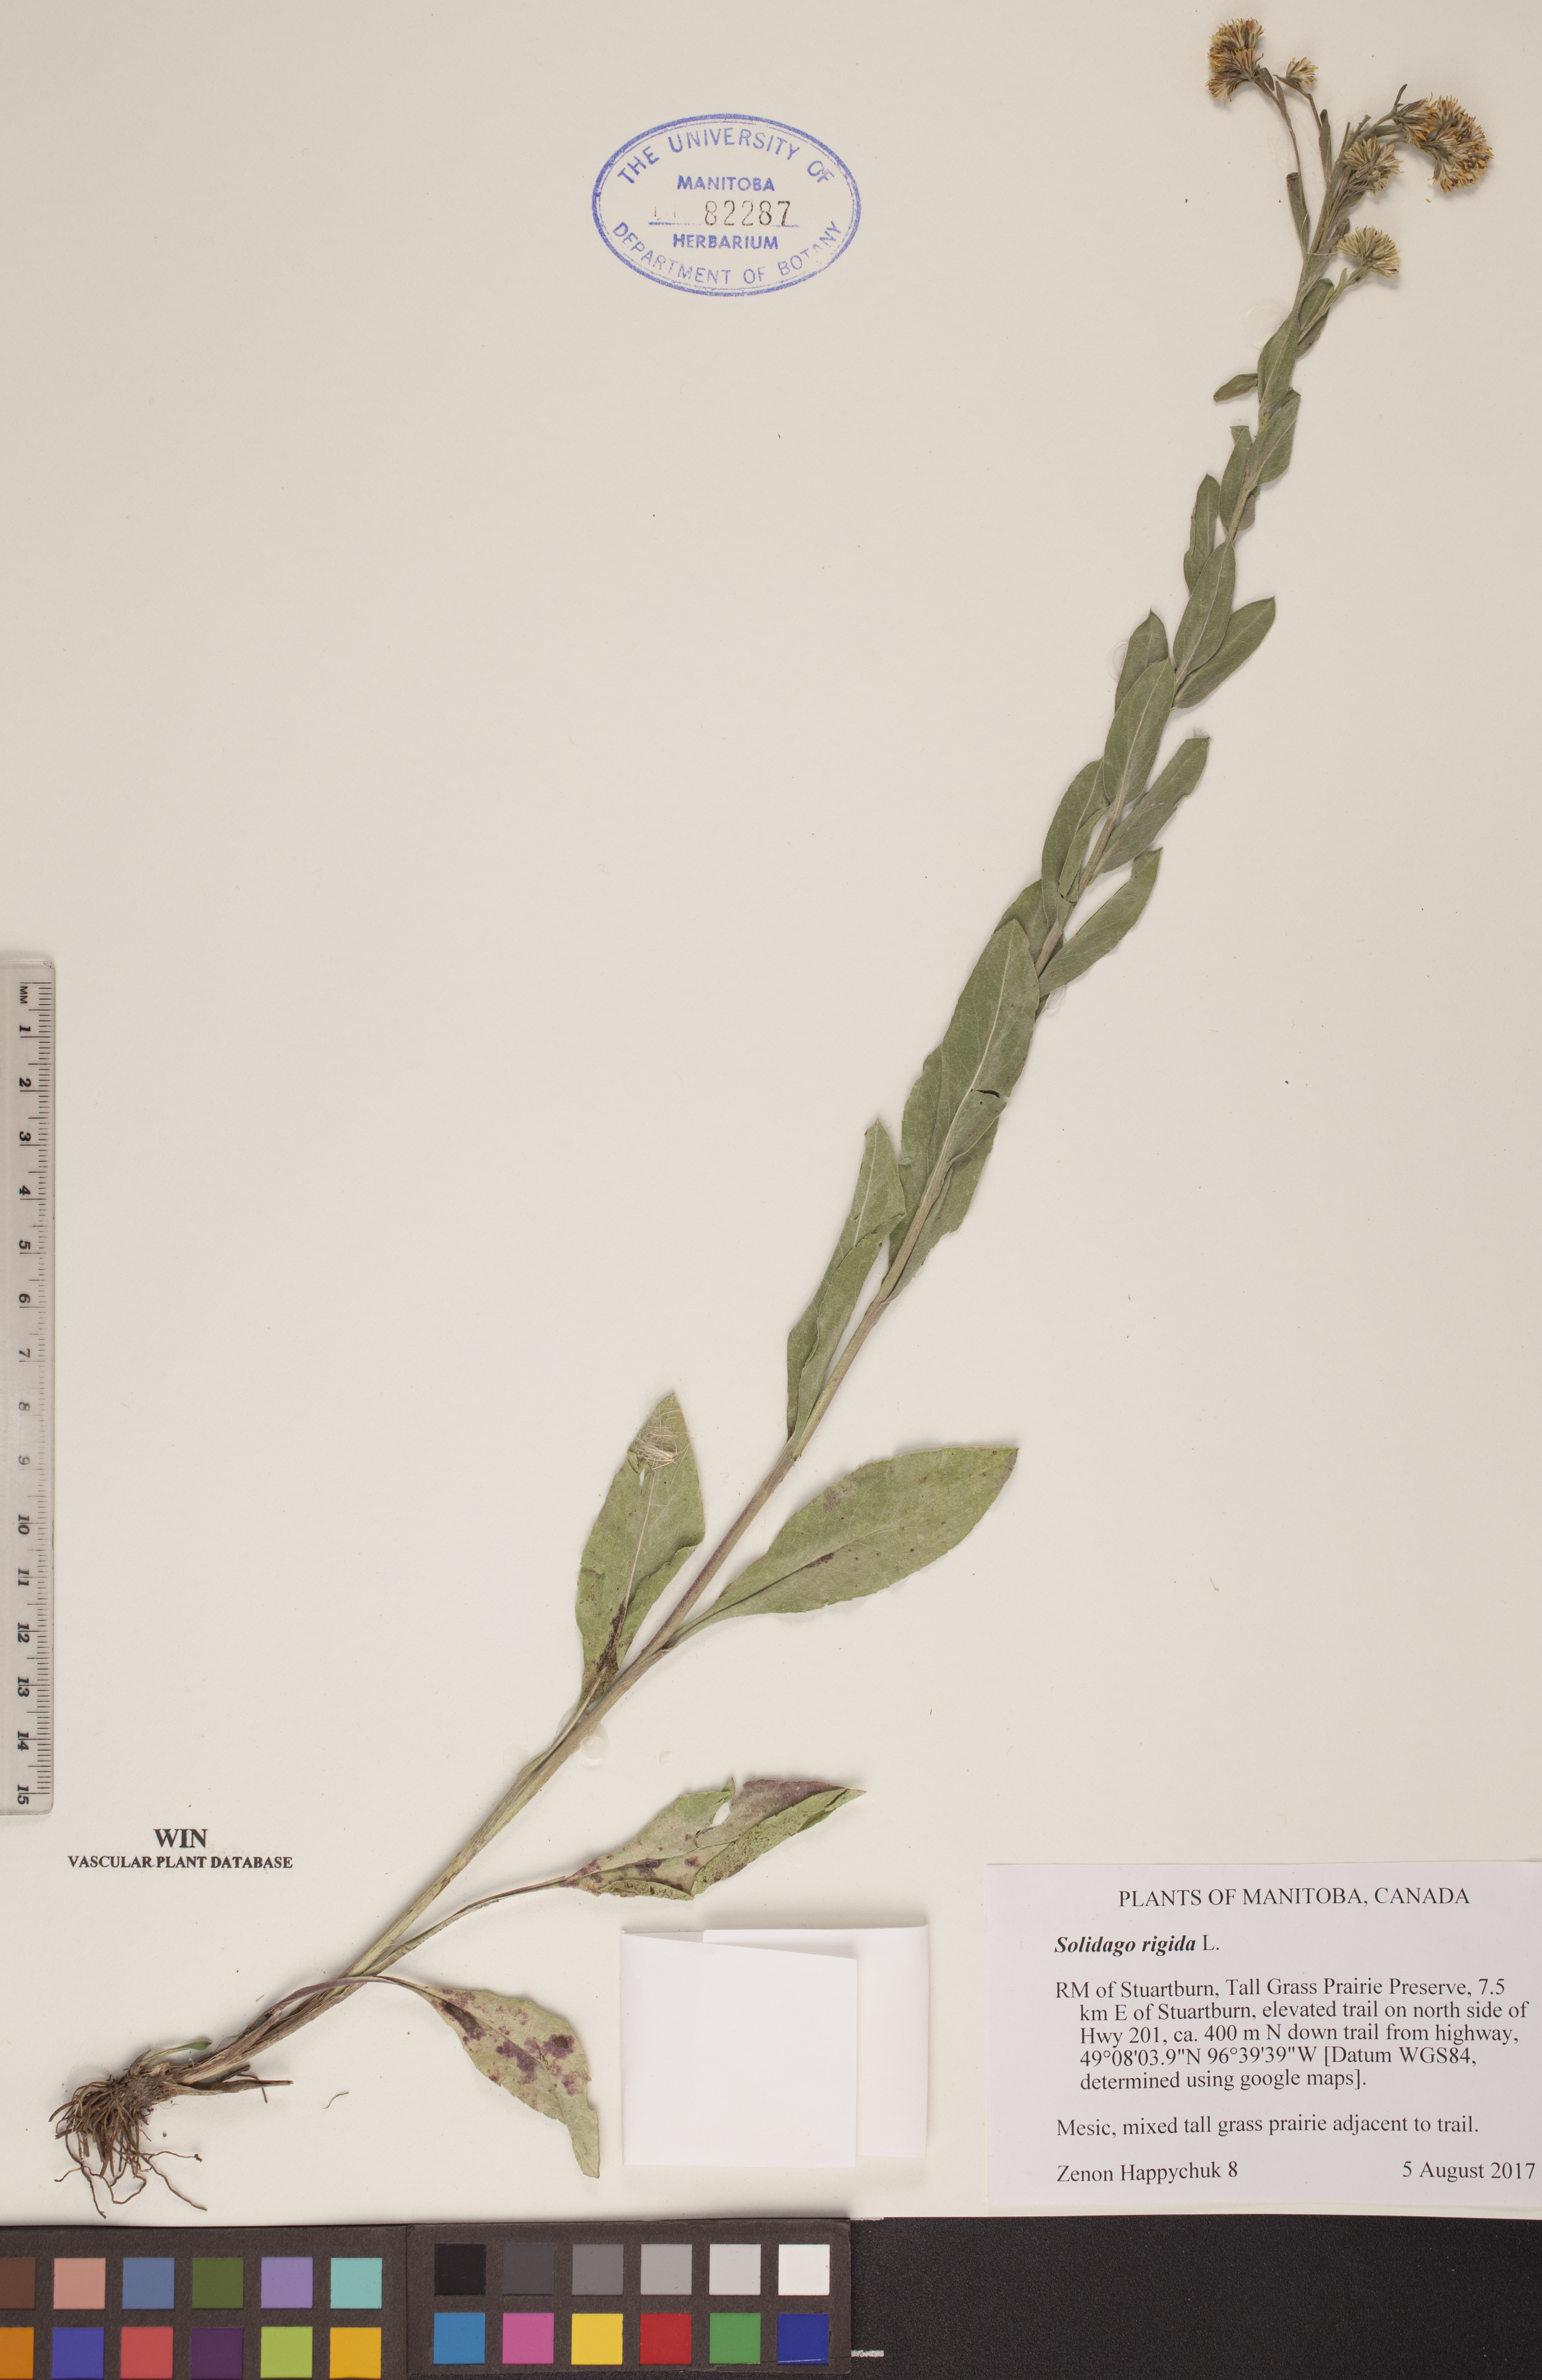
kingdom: Plantae
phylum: Tracheophyta
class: Magnoliopsida
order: Asterales
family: Asteraceae
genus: Solidago
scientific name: Solidago rigida
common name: Rigid goldenrod
